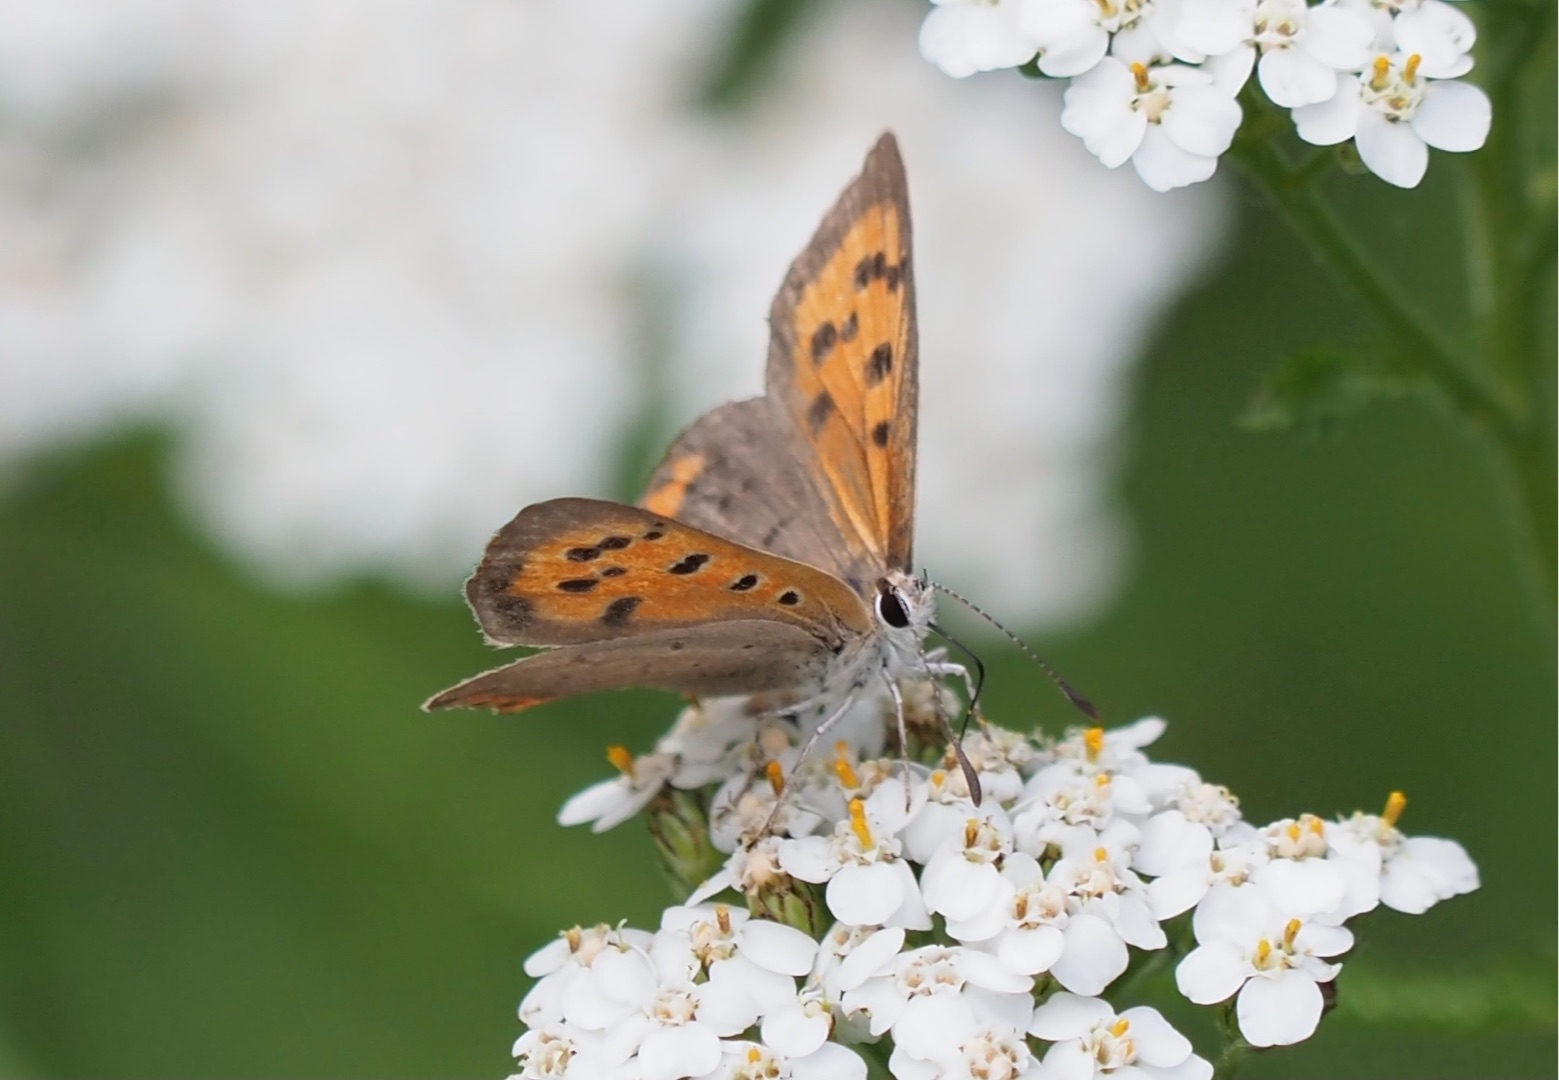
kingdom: Animalia
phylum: Arthropoda
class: Insecta
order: Lepidoptera
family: Lycaenidae
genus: Lycaena
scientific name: Lycaena phlaeas
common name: Lille ildfugl
